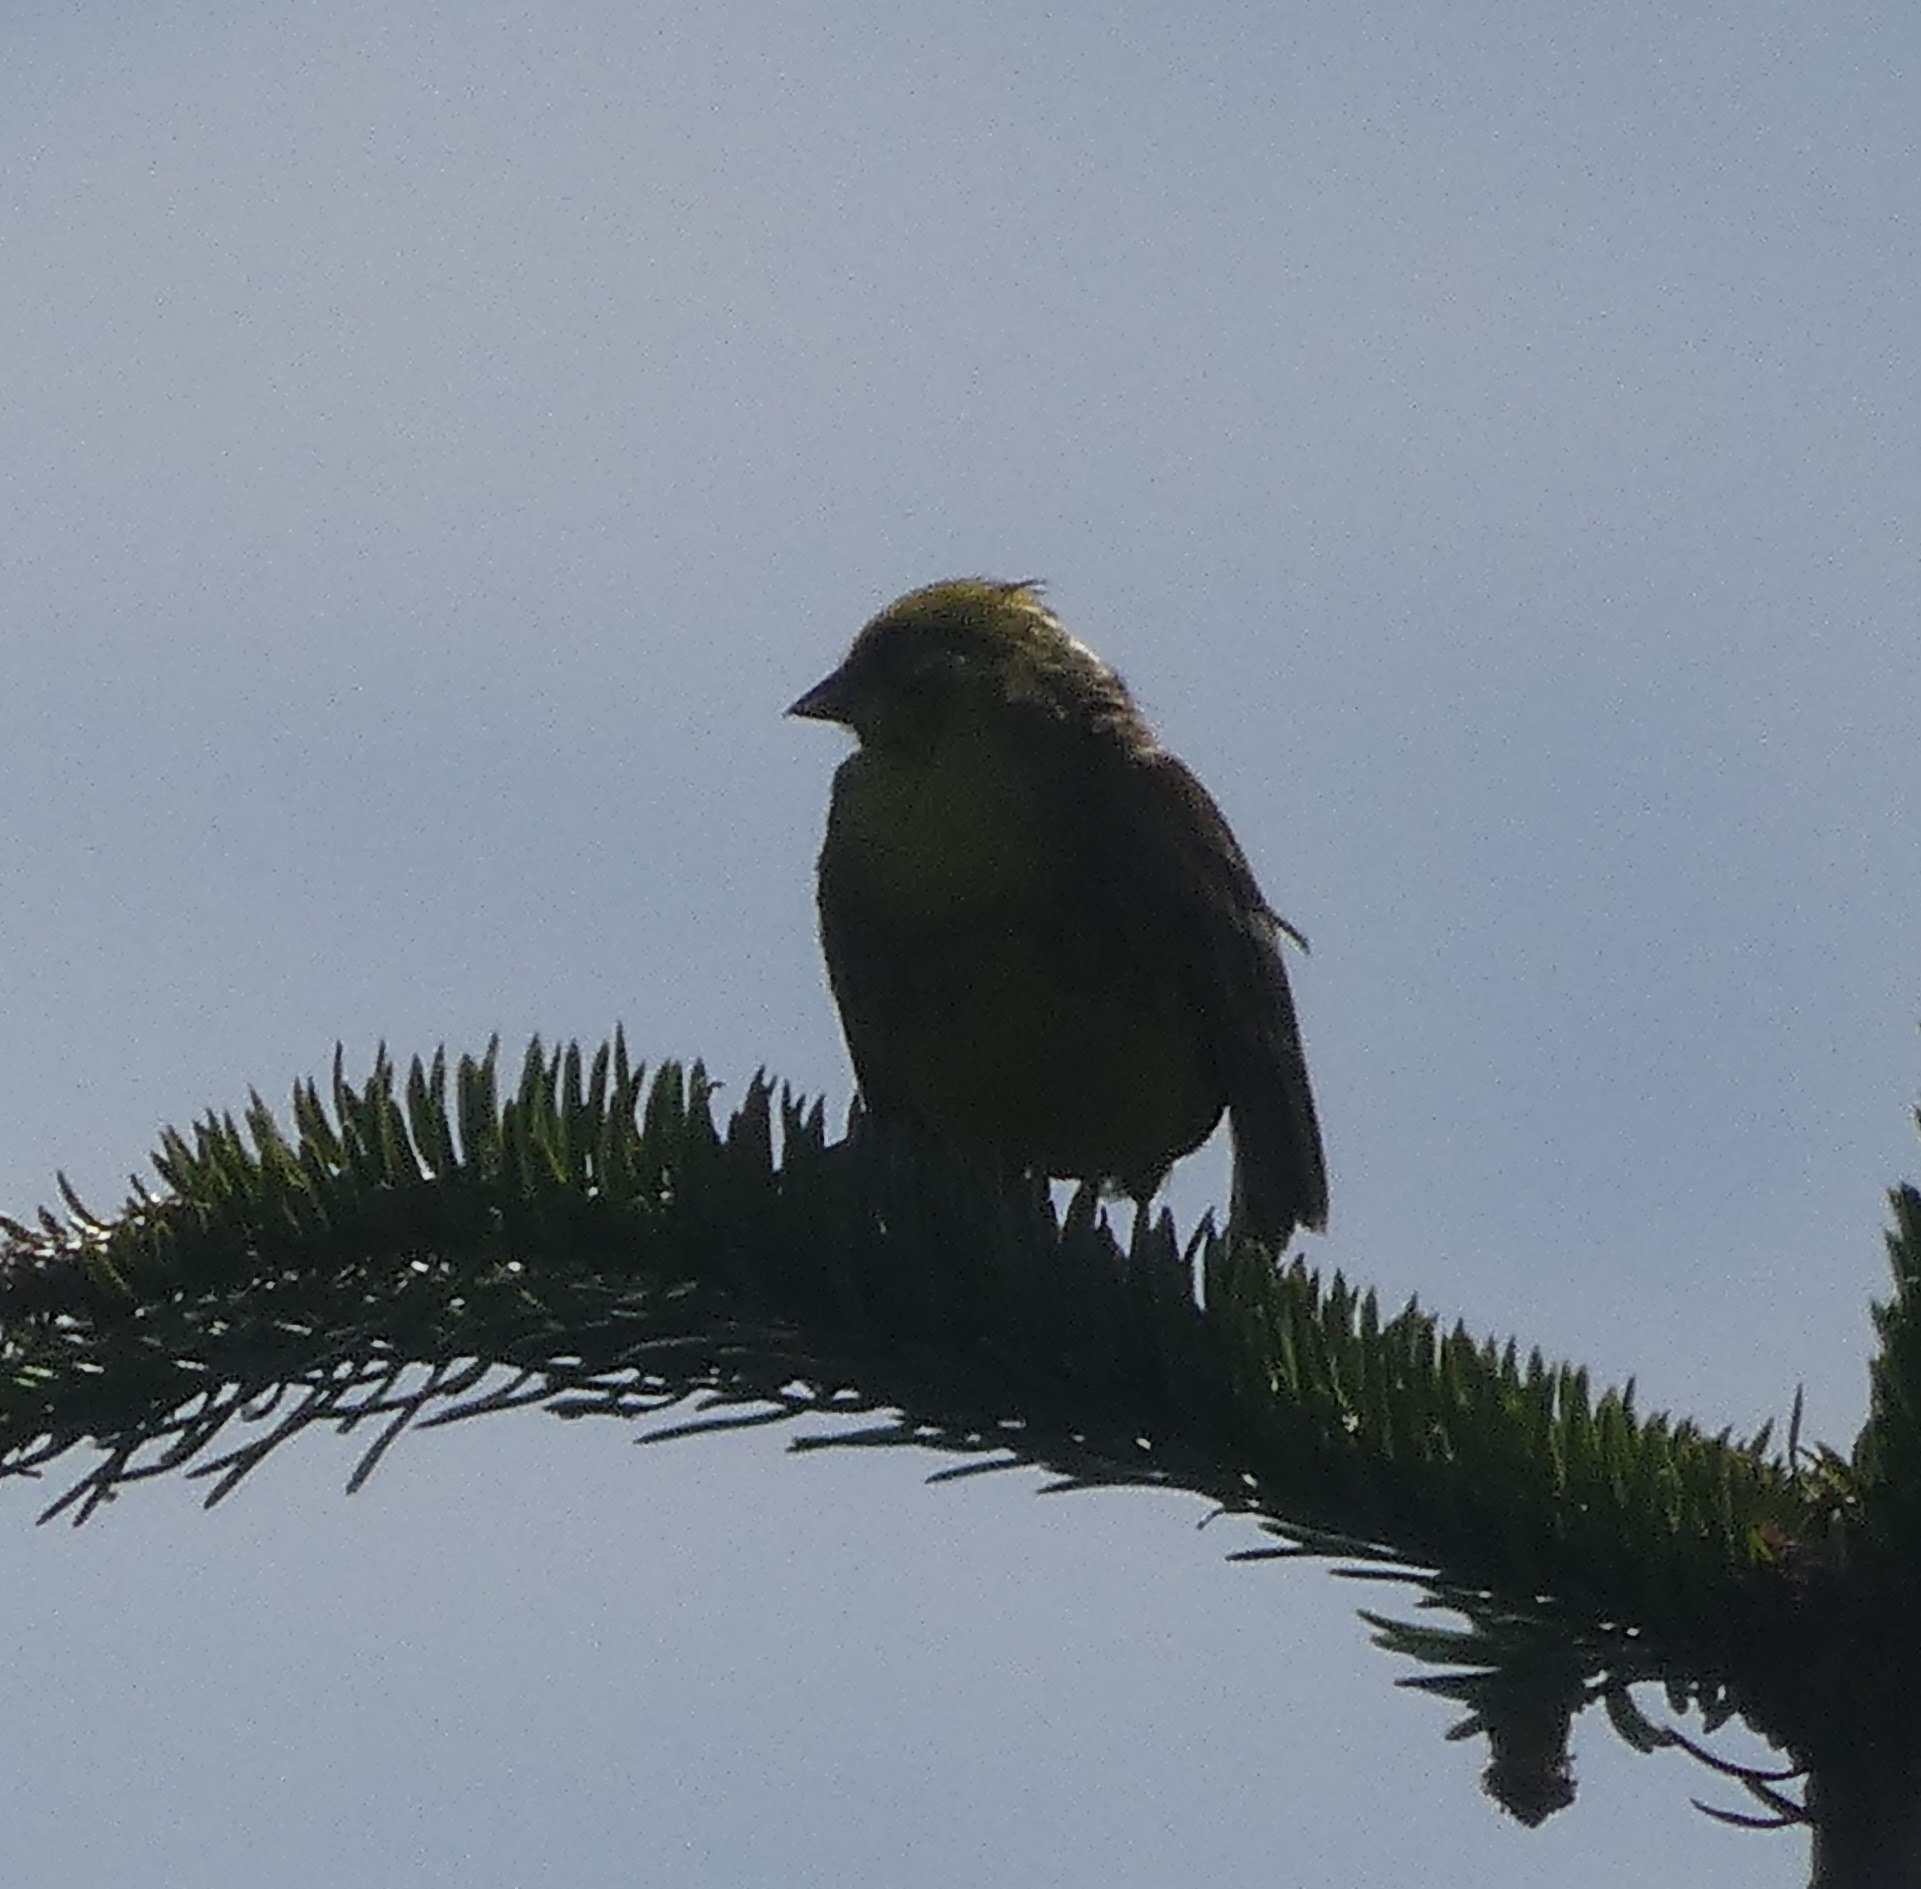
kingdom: Animalia
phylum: Chordata
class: Aves
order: Passeriformes
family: Emberizidae
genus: Emberiza
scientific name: Emberiza citrinella
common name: Gulspurv
